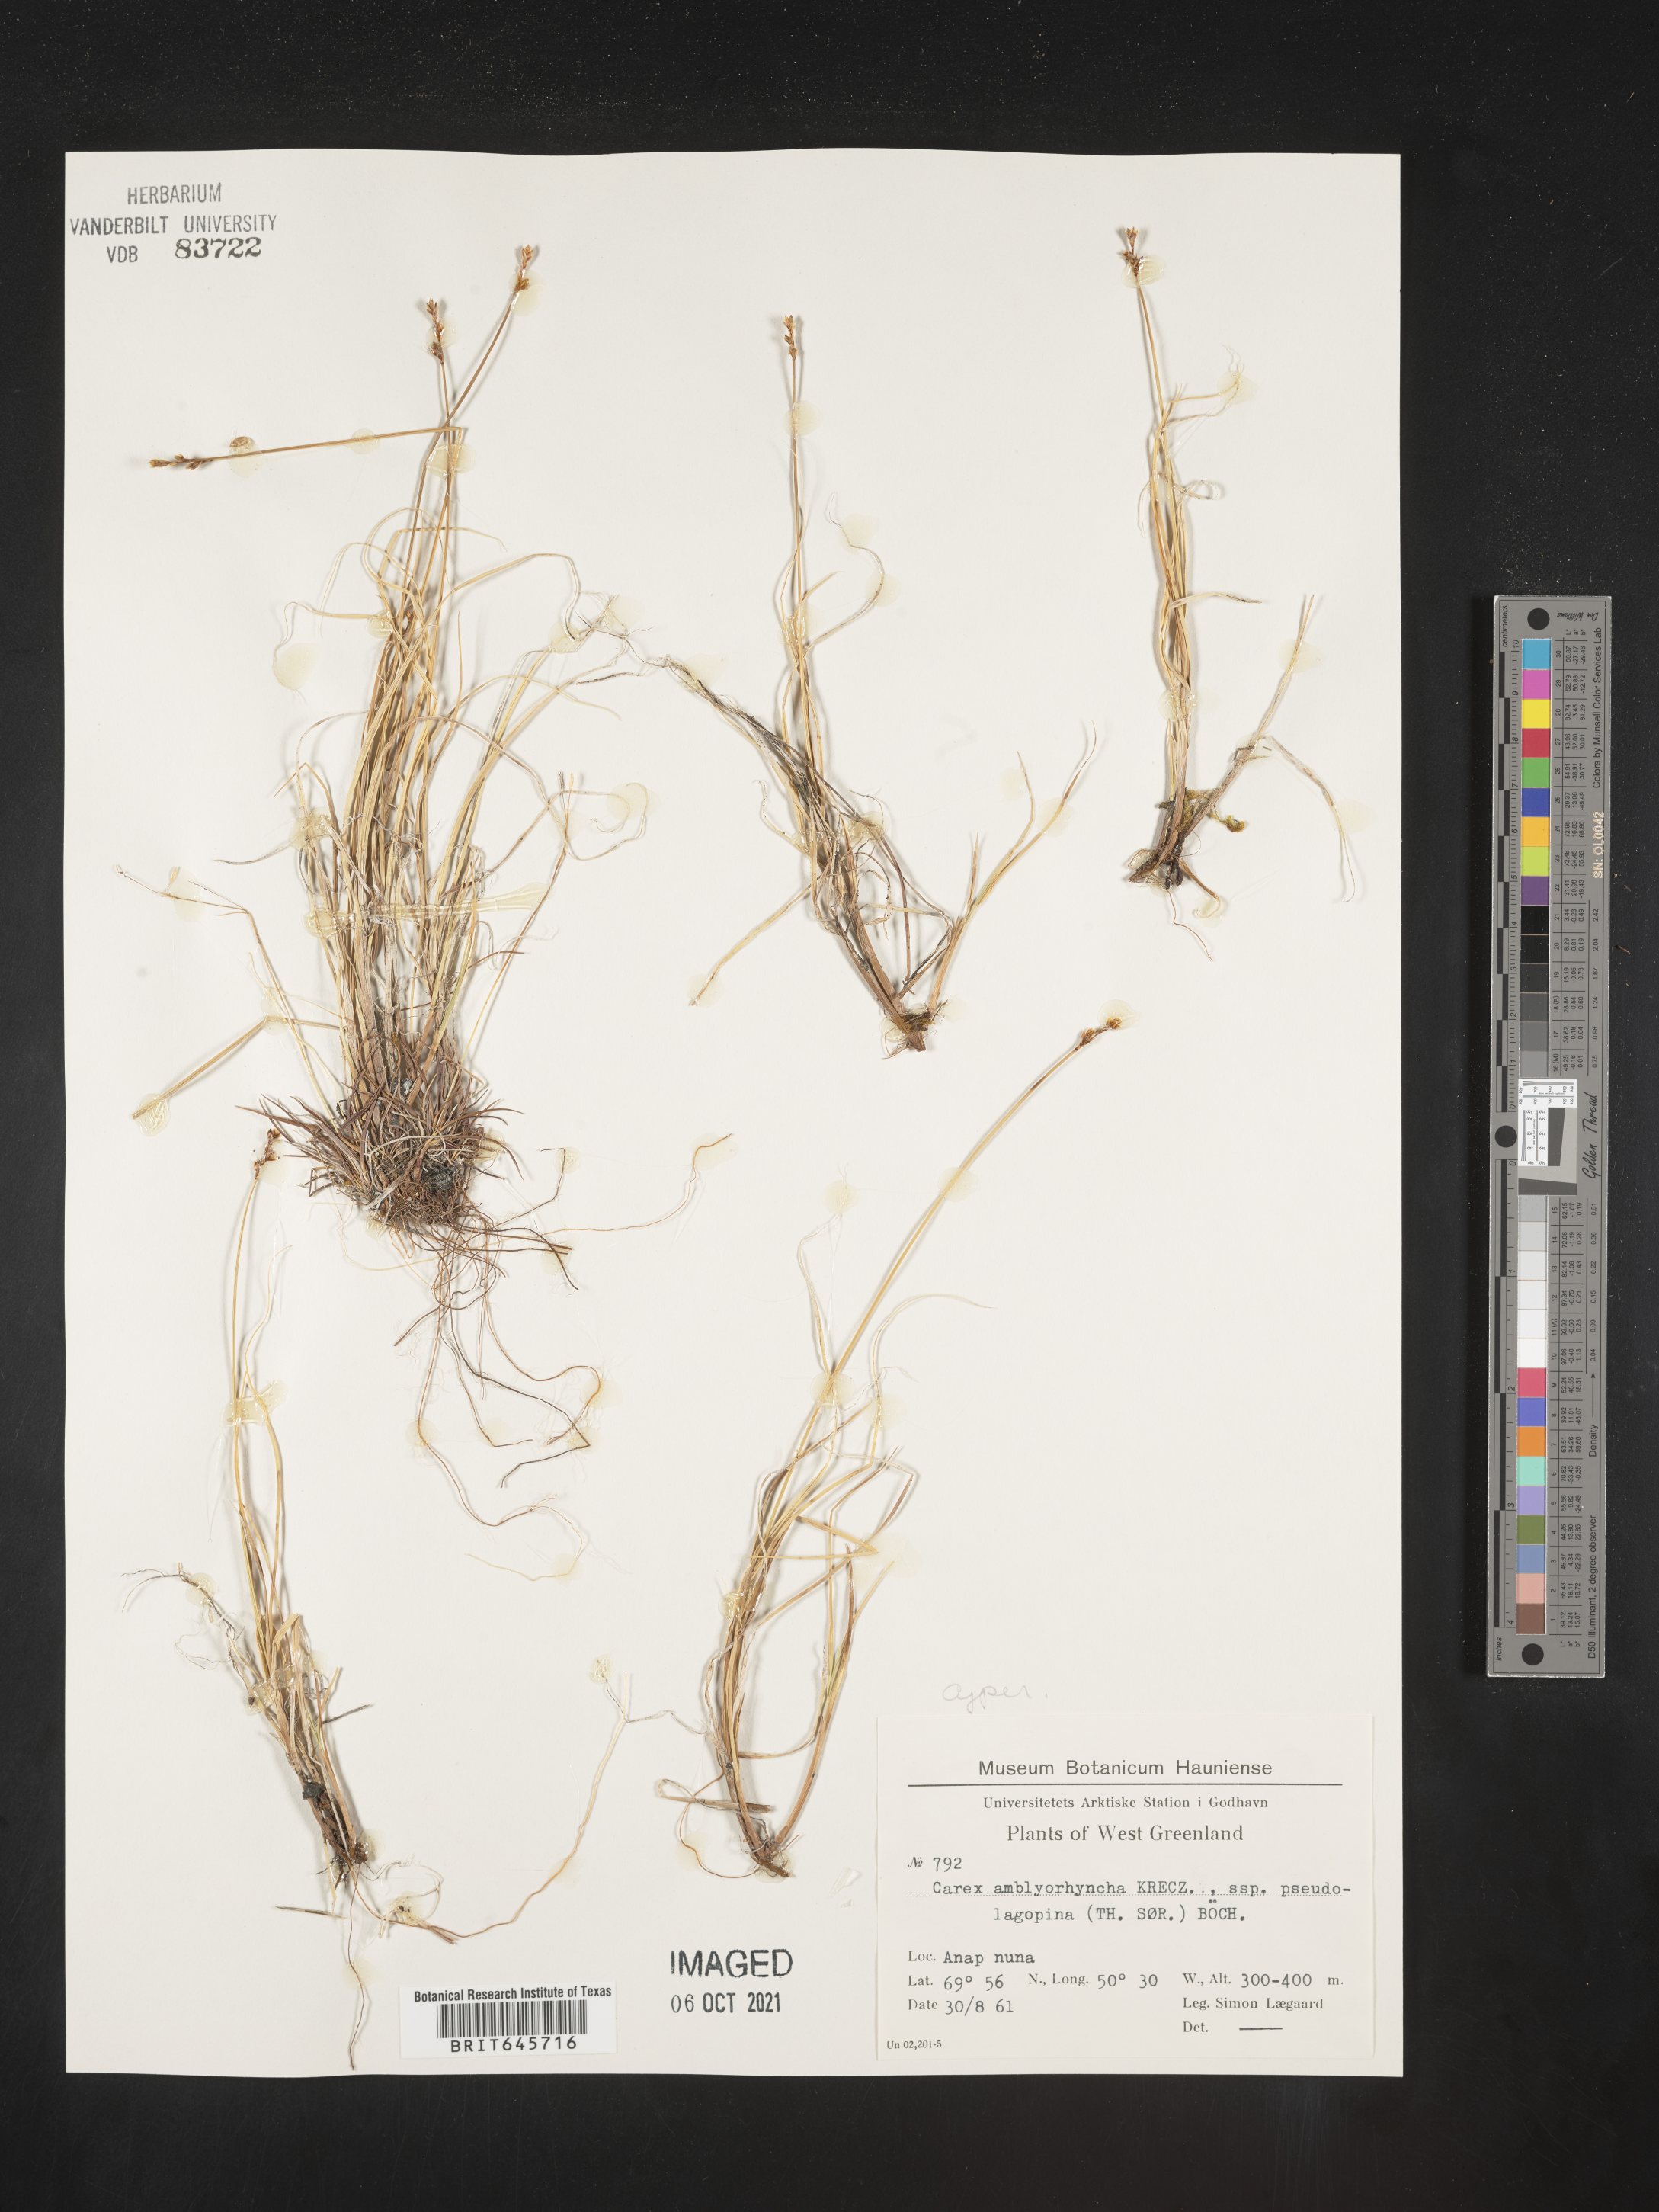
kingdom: Plantae
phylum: Tracheophyta
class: Liliopsida
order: Poales
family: Cyperaceae
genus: Carex
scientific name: Carex marina
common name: Seashore sedge
